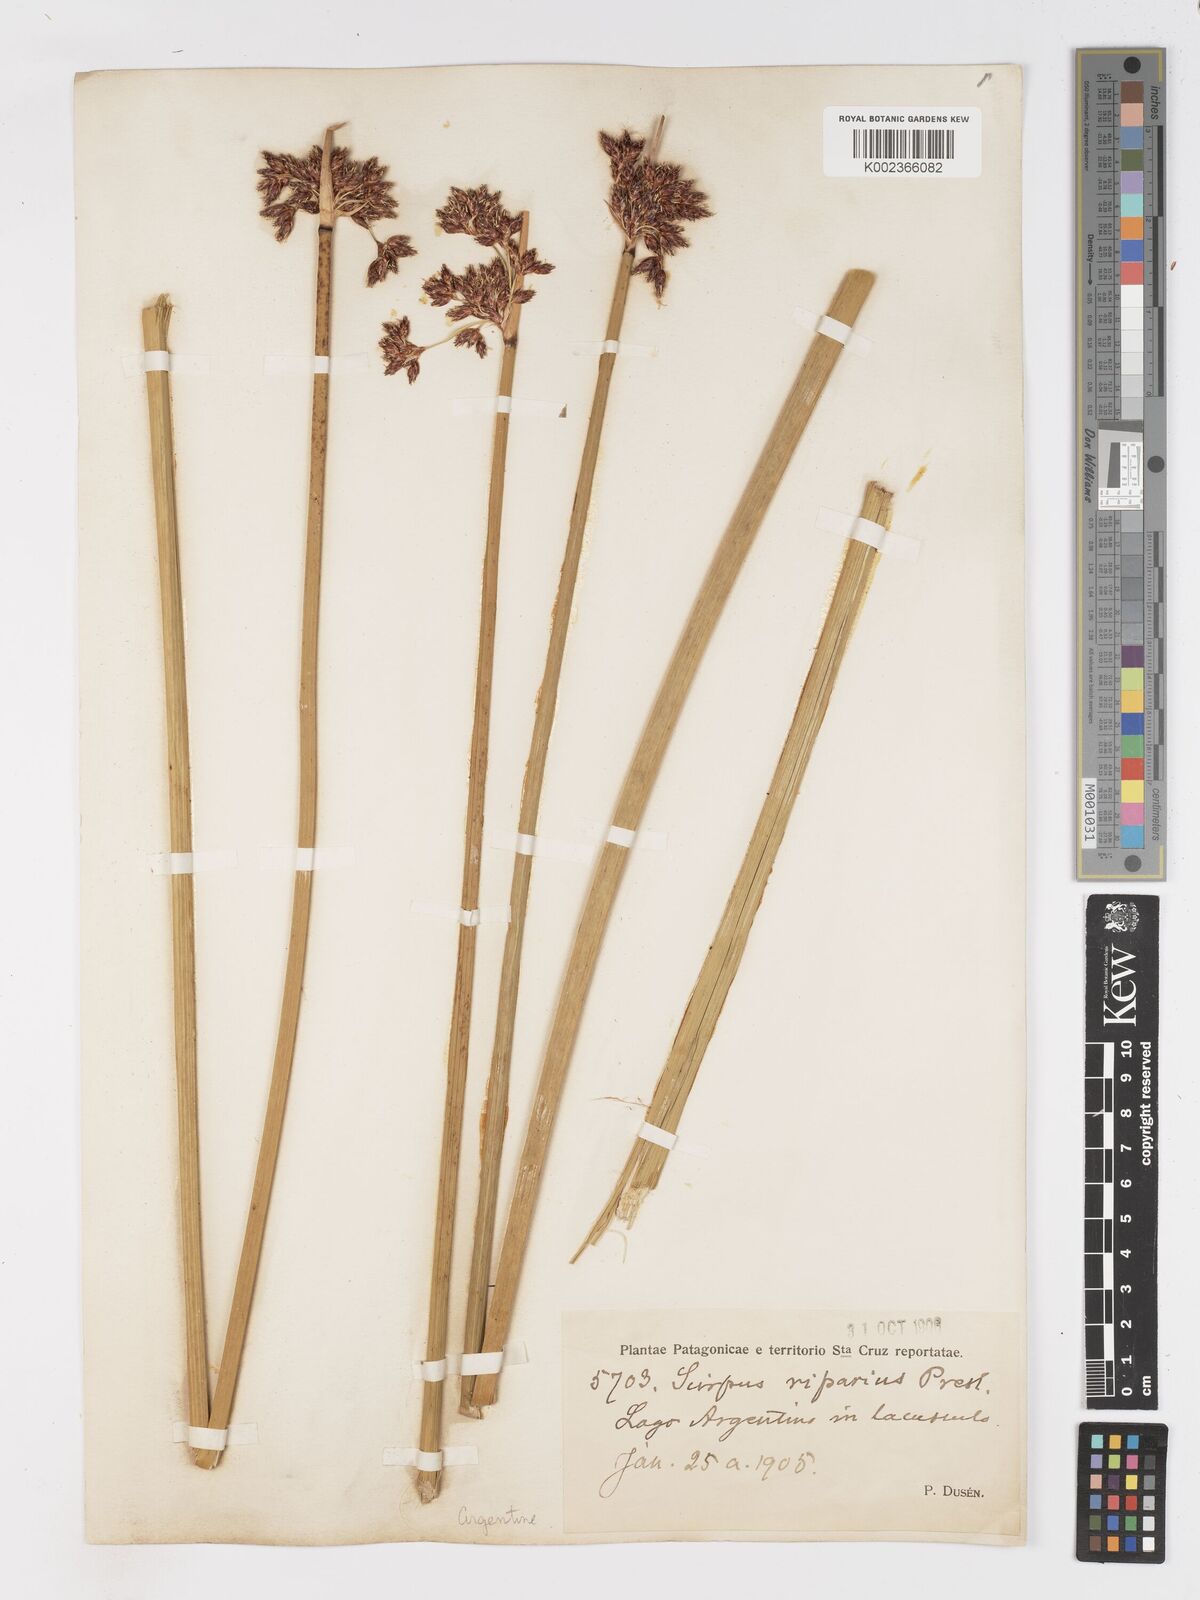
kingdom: Plantae
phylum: Tracheophyta
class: Liliopsida
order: Poales
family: Cyperaceae
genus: Schoenoplectus
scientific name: Schoenoplectus californicus
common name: California bulrush
